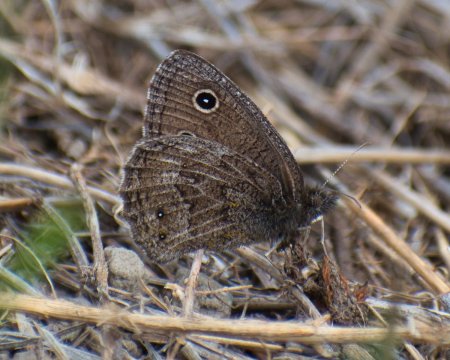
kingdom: Animalia
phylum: Arthropoda
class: Insecta
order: Lepidoptera
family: Nymphalidae
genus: Cercyonis
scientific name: Cercyonis oetus
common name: Small Wood-Nymph
